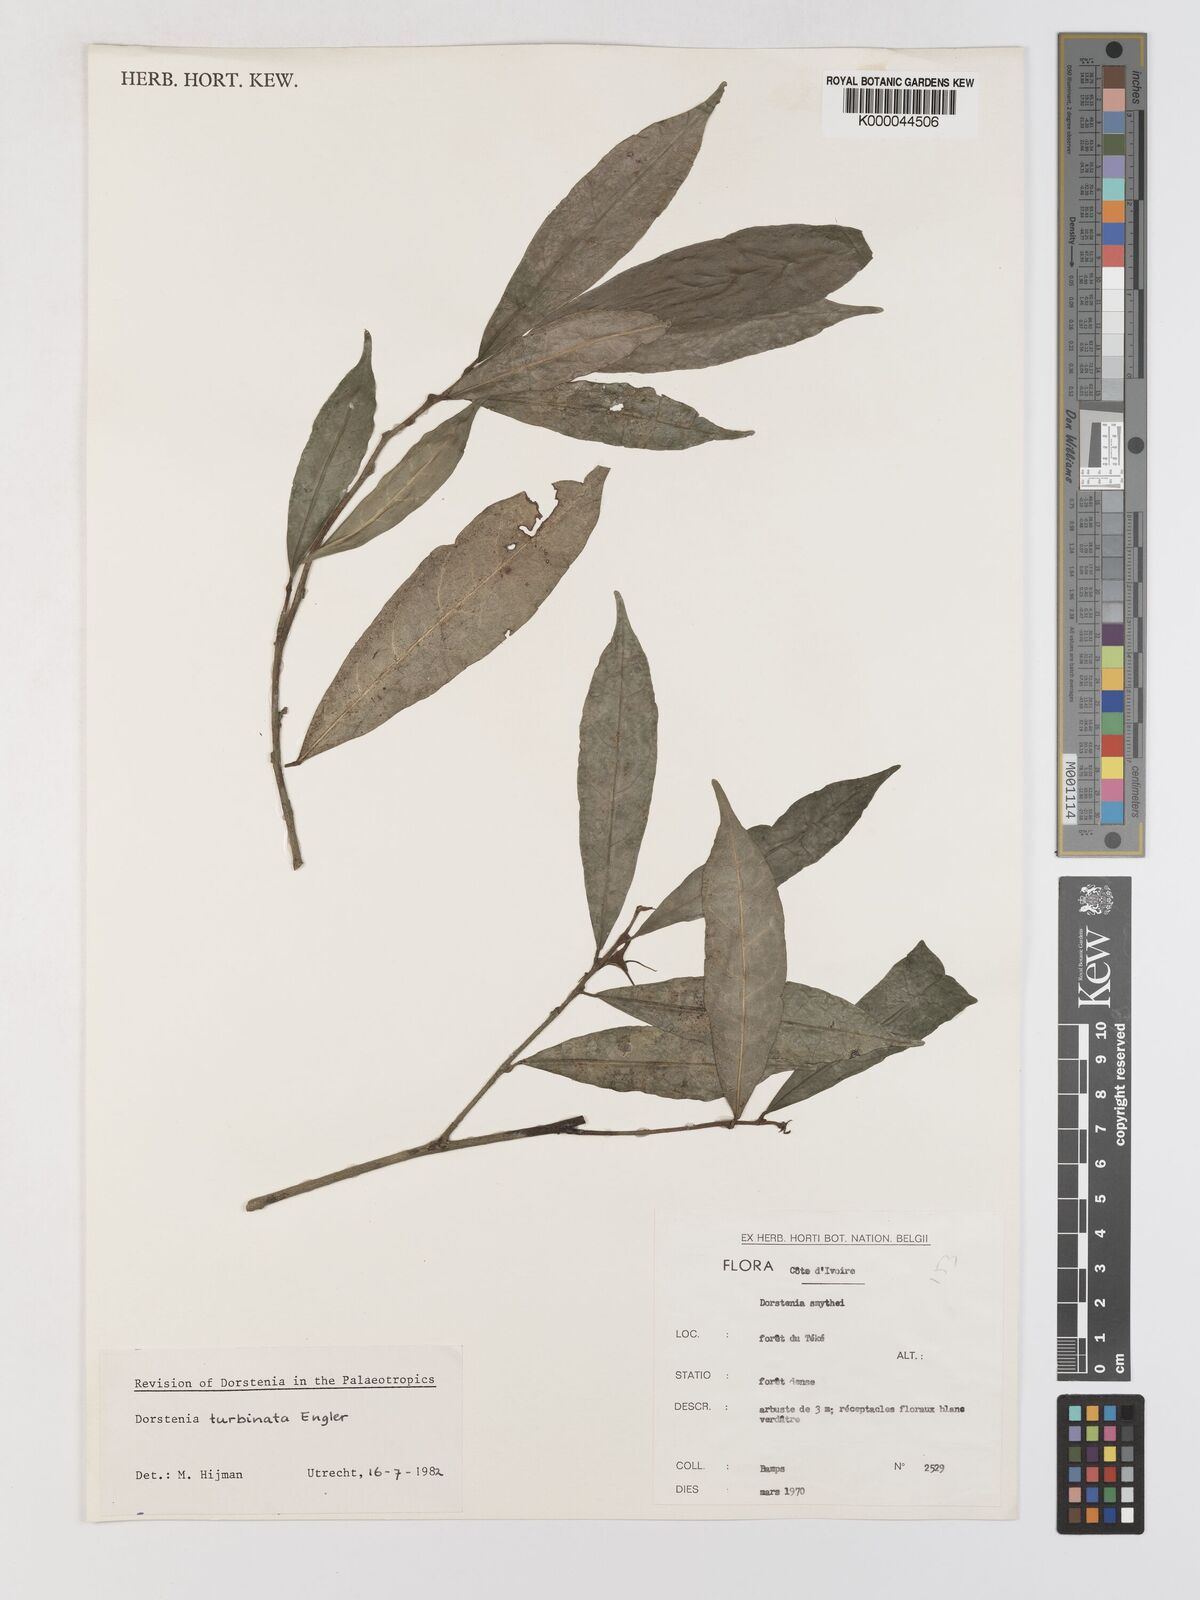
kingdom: Plantae
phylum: Tracheophyta
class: Magnoliopsida
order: Rosales
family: Moraceae
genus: Hijmania
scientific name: Hijmania turbinata
